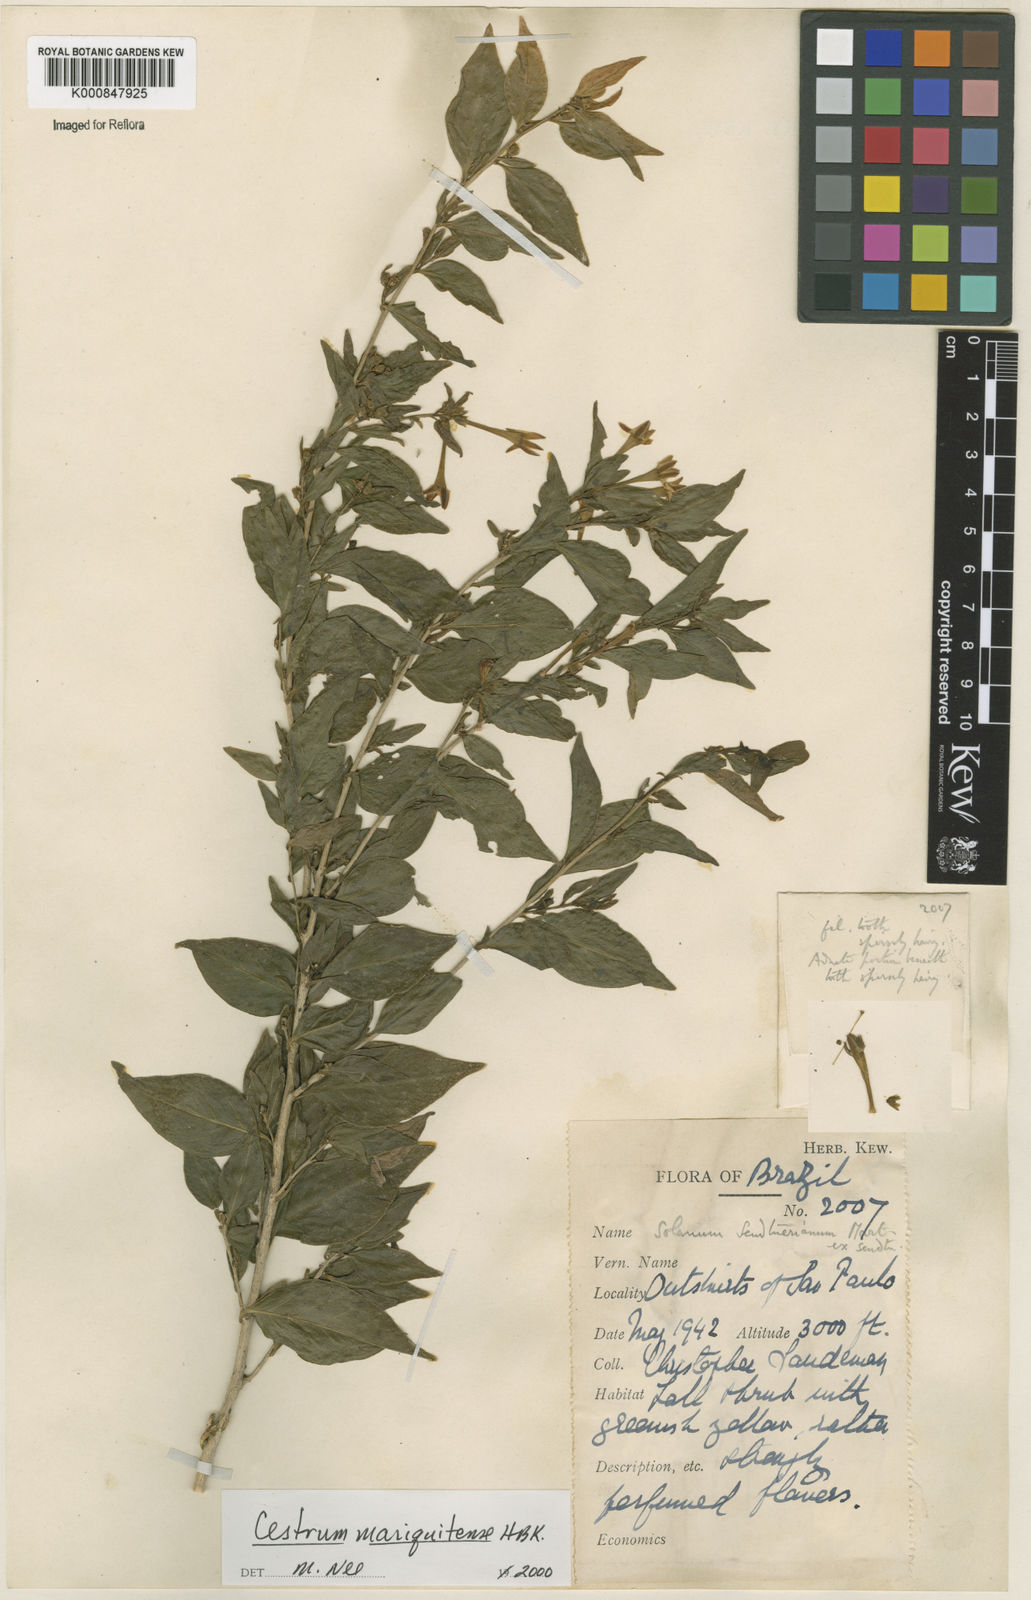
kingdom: Plantae
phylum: Tracheophyta
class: Magnoliopsida
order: Solanales
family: Solanaceae
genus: Cestrum
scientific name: Cestrum mariquitense
